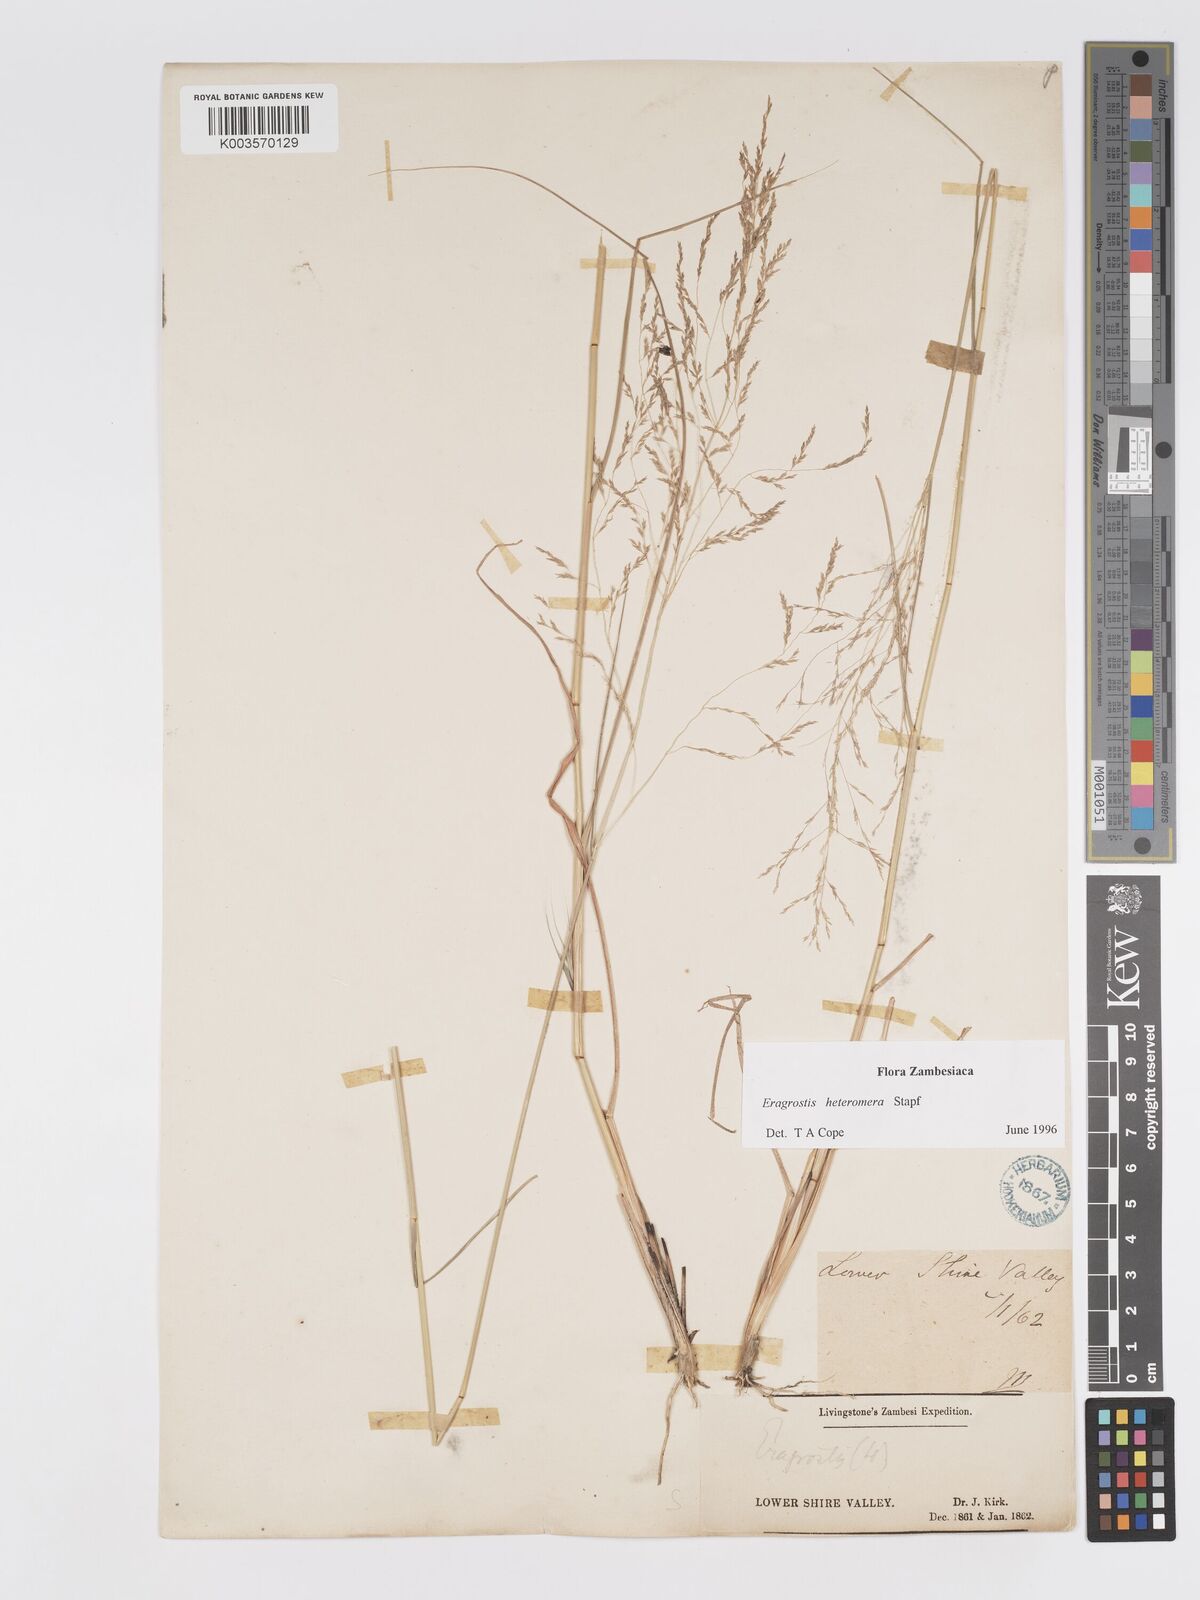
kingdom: Plantae
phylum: Tracheophyta
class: Liliopsida
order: Poales
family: Poaceae
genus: Eragrostis
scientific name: Eragrostis heteromera
